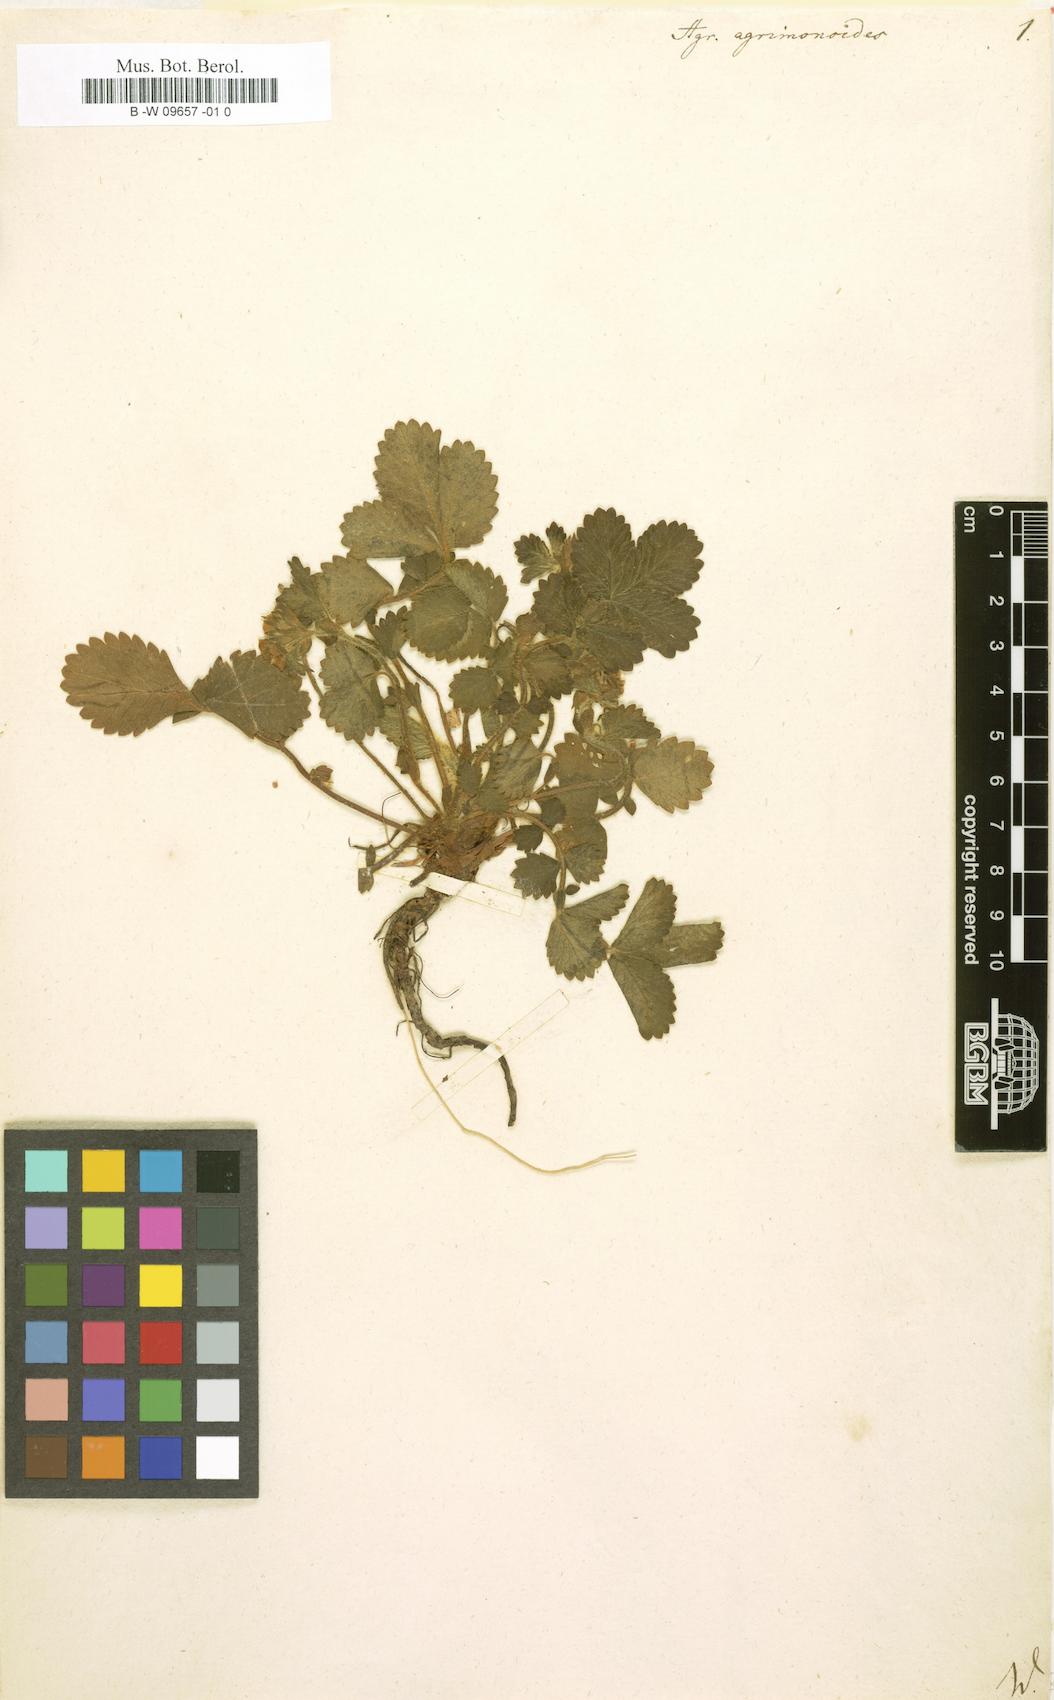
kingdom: Plantae
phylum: Tracheophyta
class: Magnoliopsida
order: Rosales
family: Rosaceae
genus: Aremonia
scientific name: Aremonia agrimonoides
